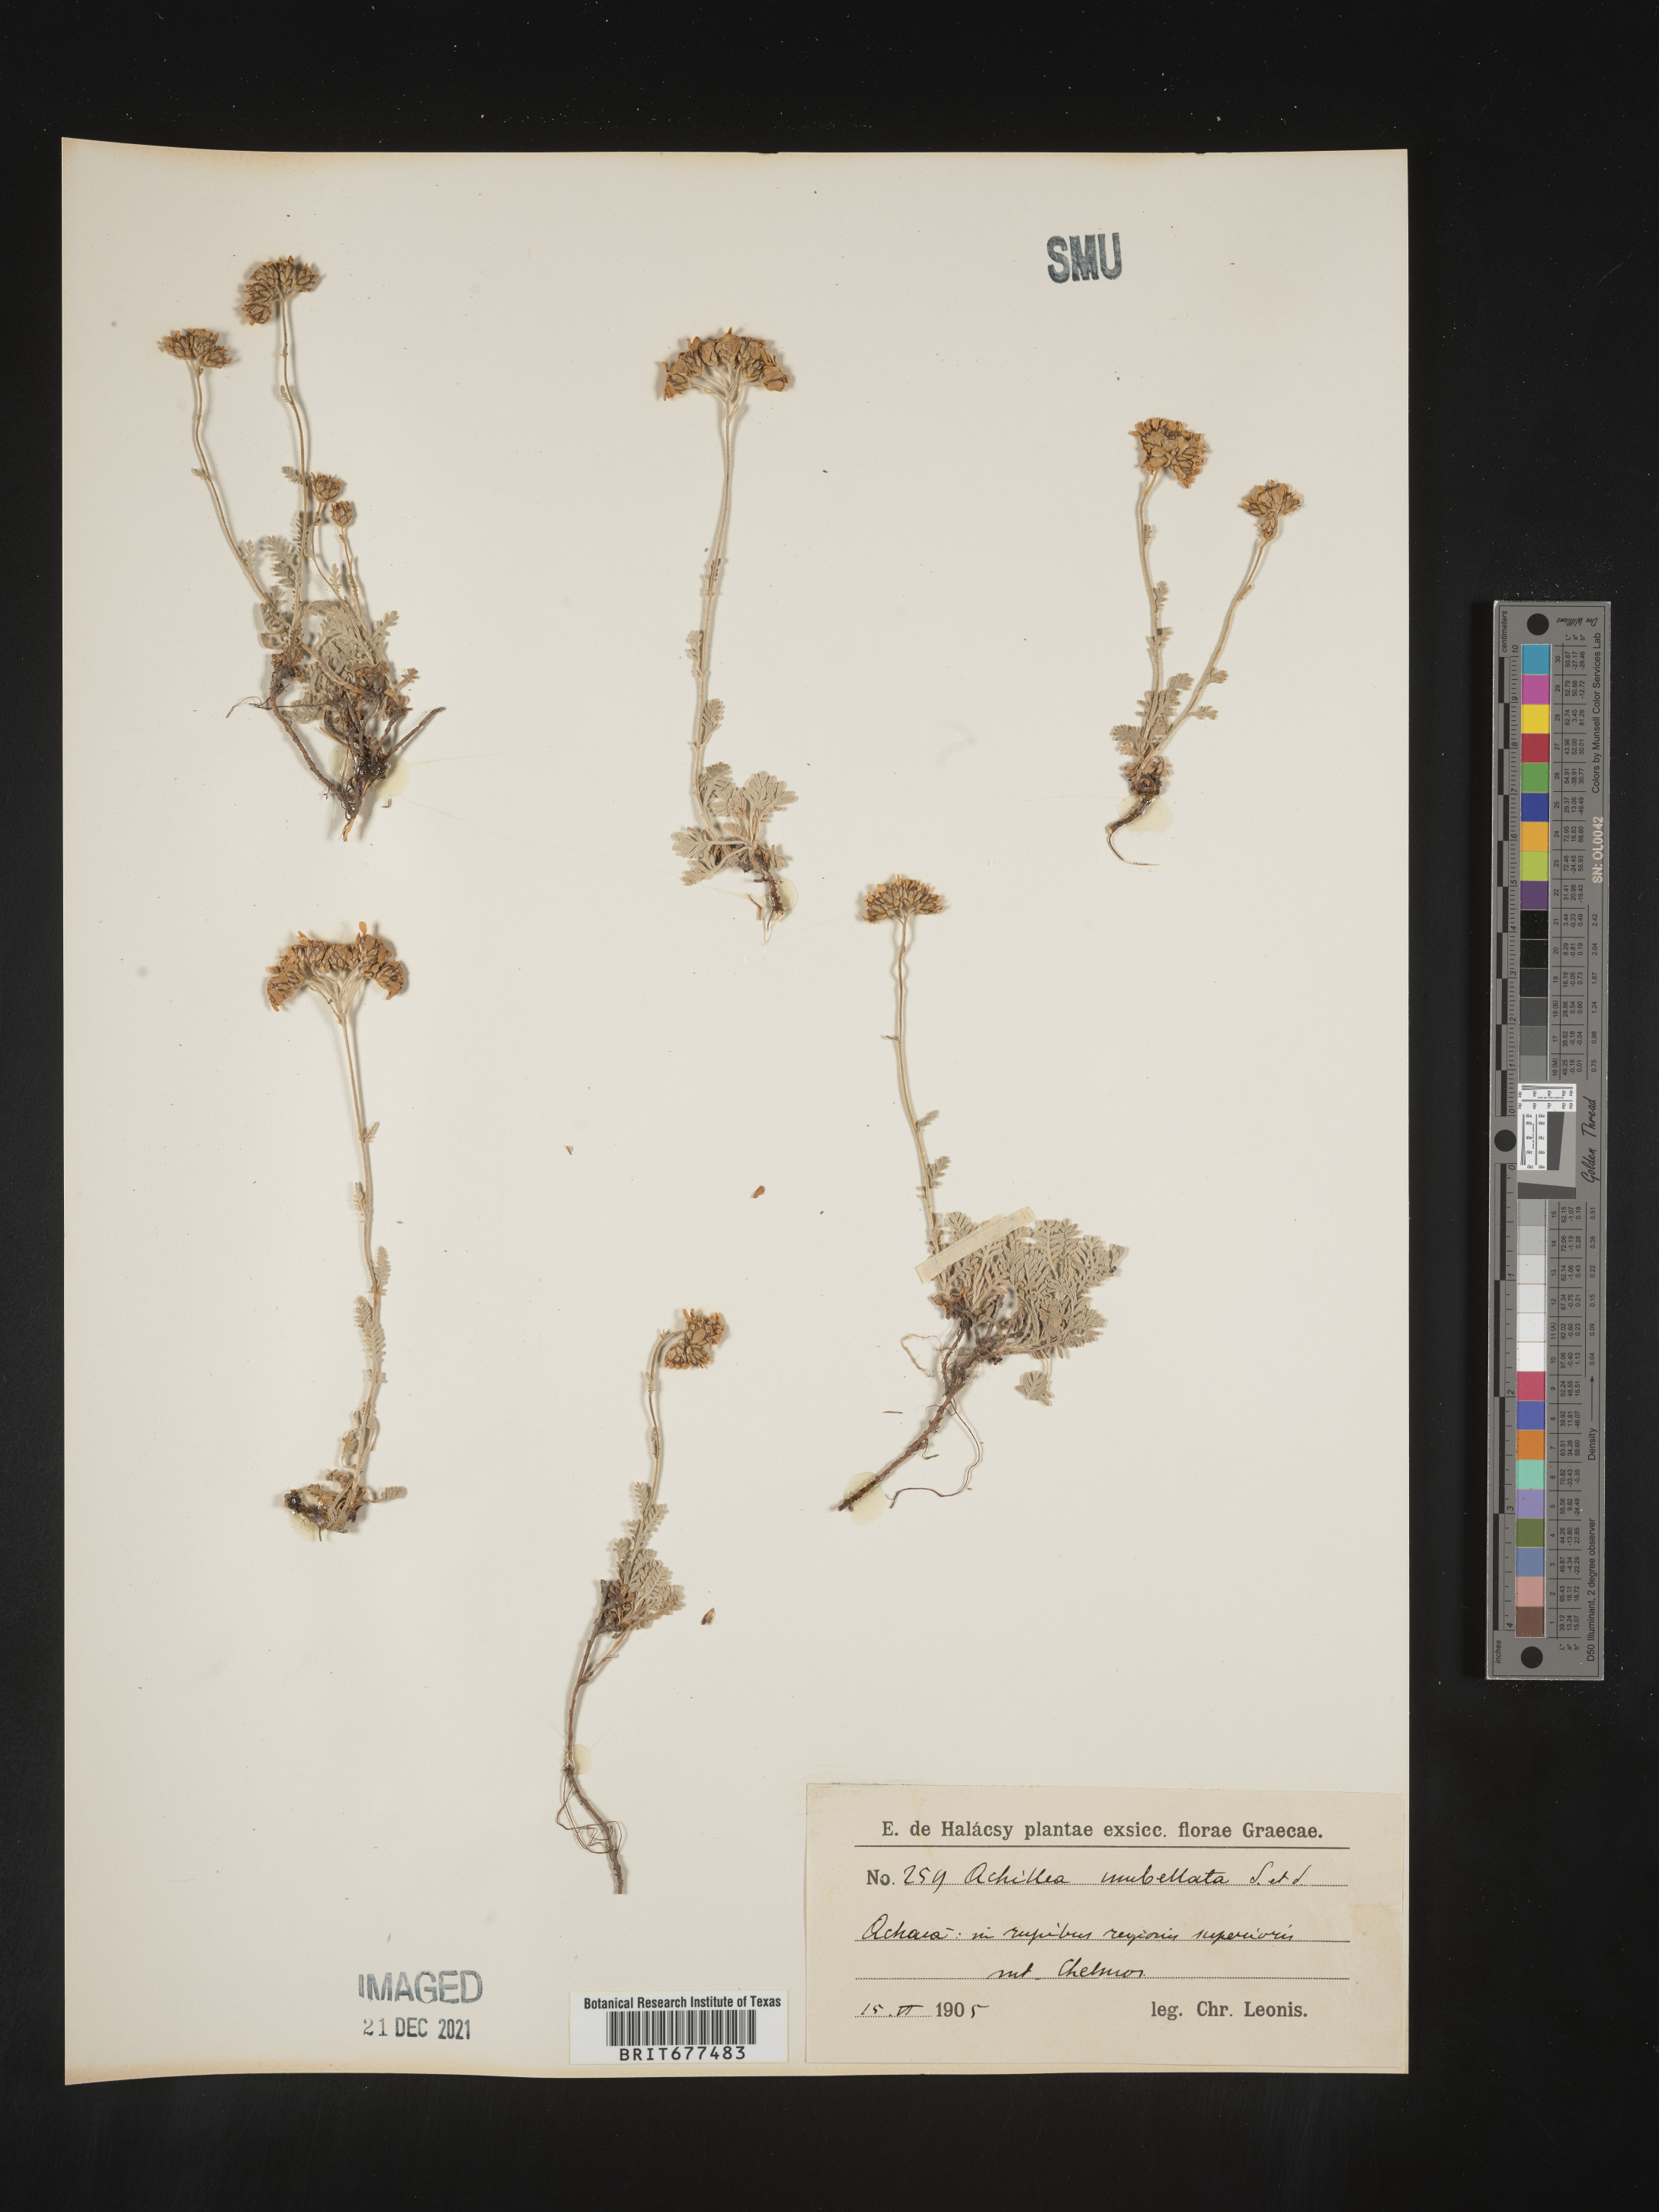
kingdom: Plantae
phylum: Tracheophyta
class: Magnoliopsida
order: Asterales
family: Asteraceae
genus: Achillea
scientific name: Achillea
